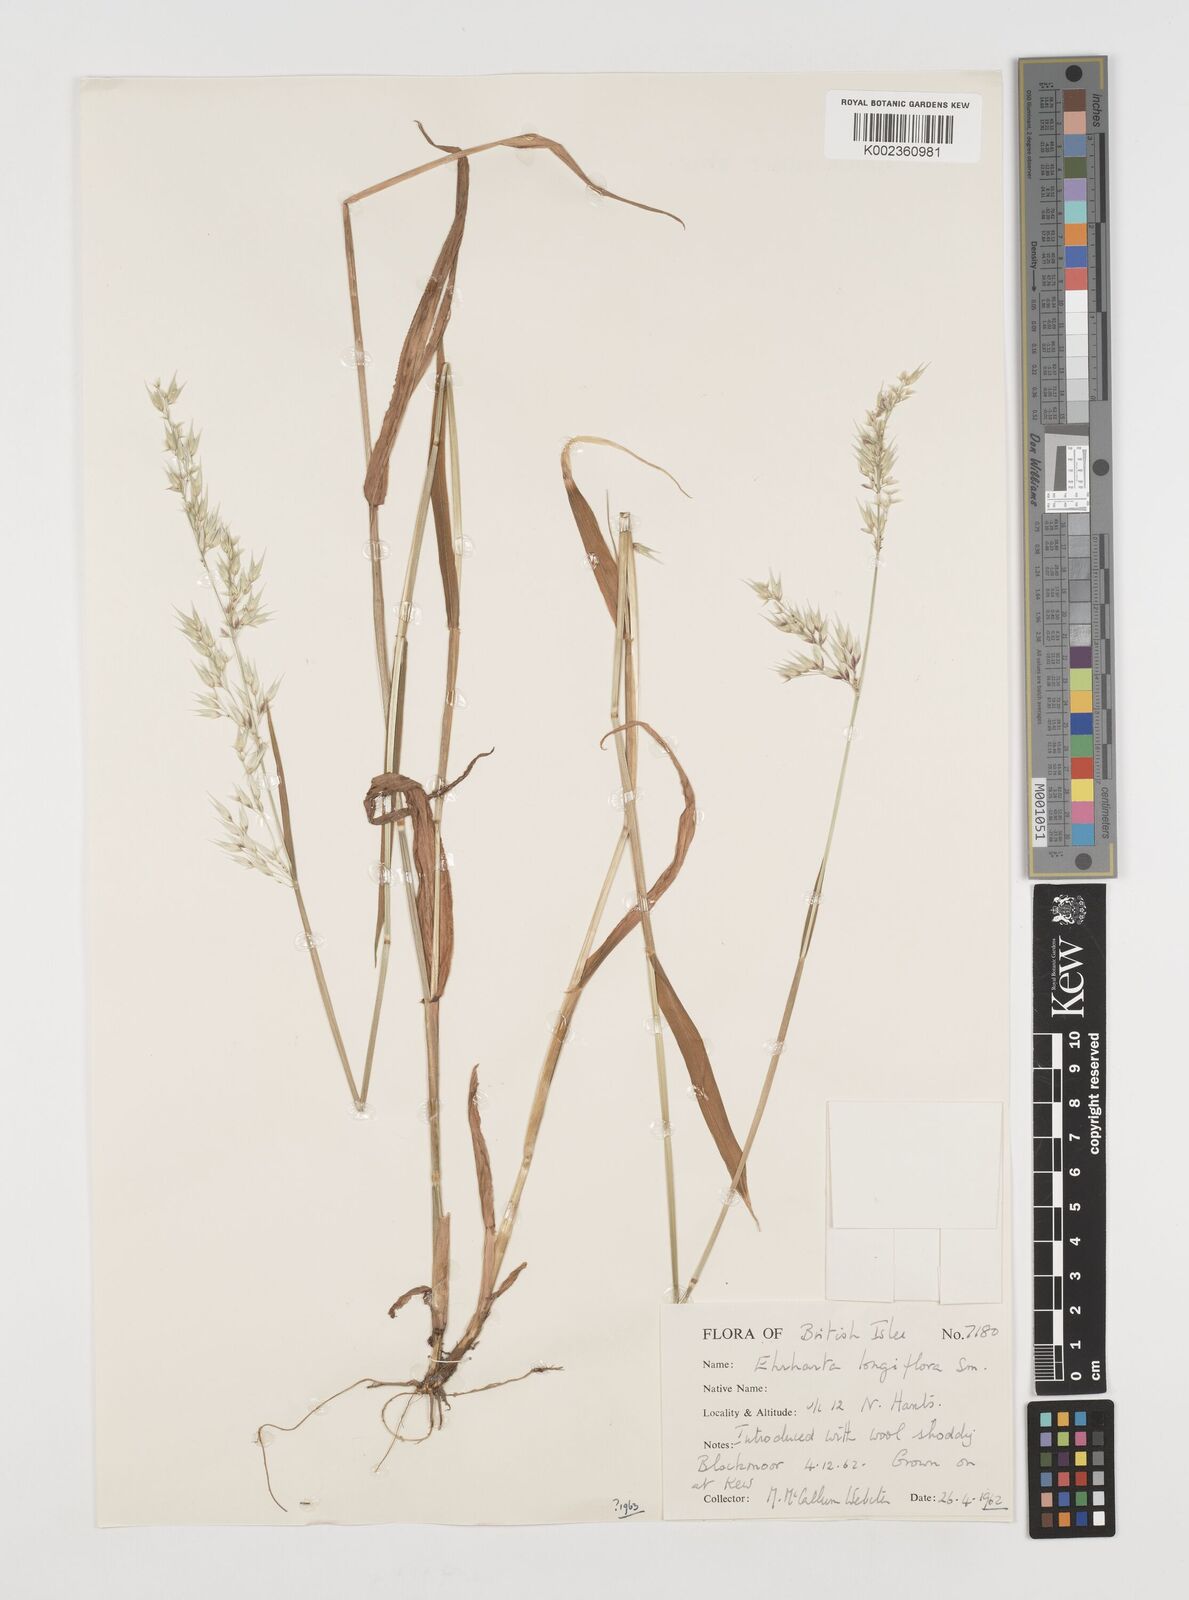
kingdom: Plantae
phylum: Tracheophyta
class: Liliopsida
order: Poales
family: Poaceae
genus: Ehrharta
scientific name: Ehrharta longiflora
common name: Longflowered veldtgrass
